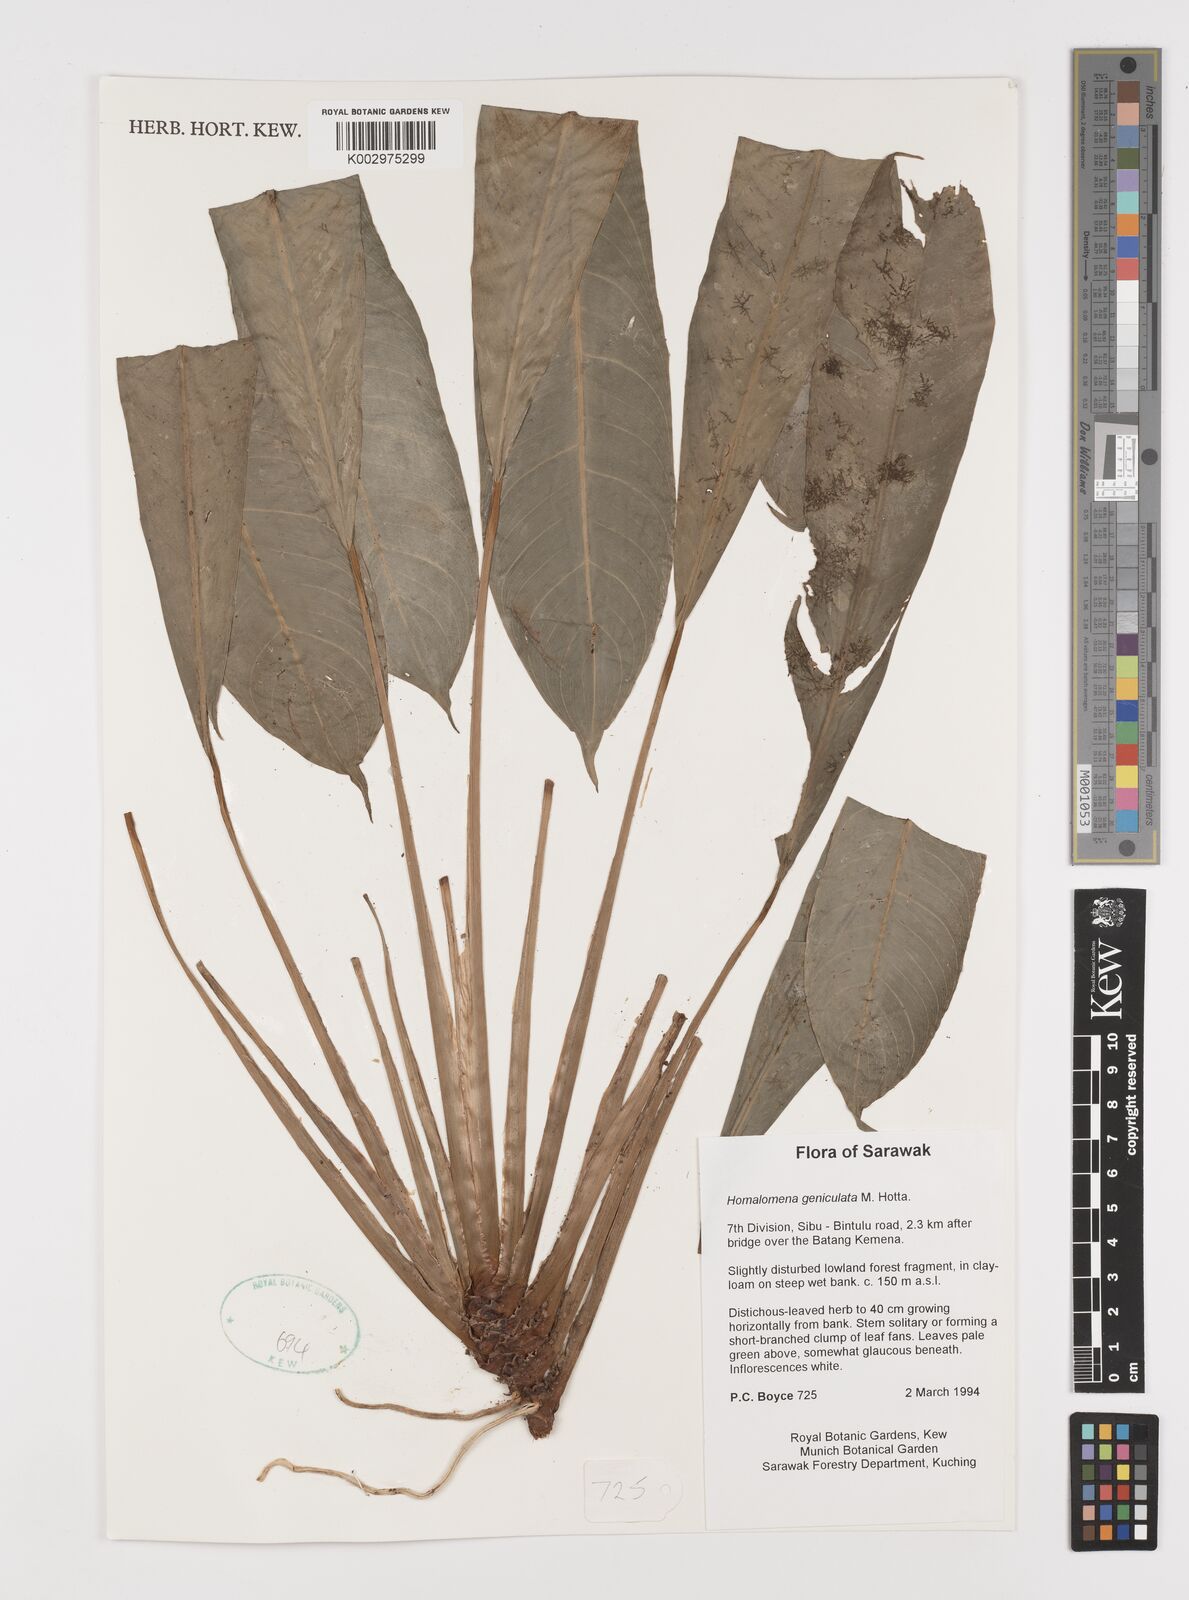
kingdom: Plantae
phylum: Tracheophyta
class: Liliopsida
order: Alismatales
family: Araceae
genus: Homalomena
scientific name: Homalomena punctulata
